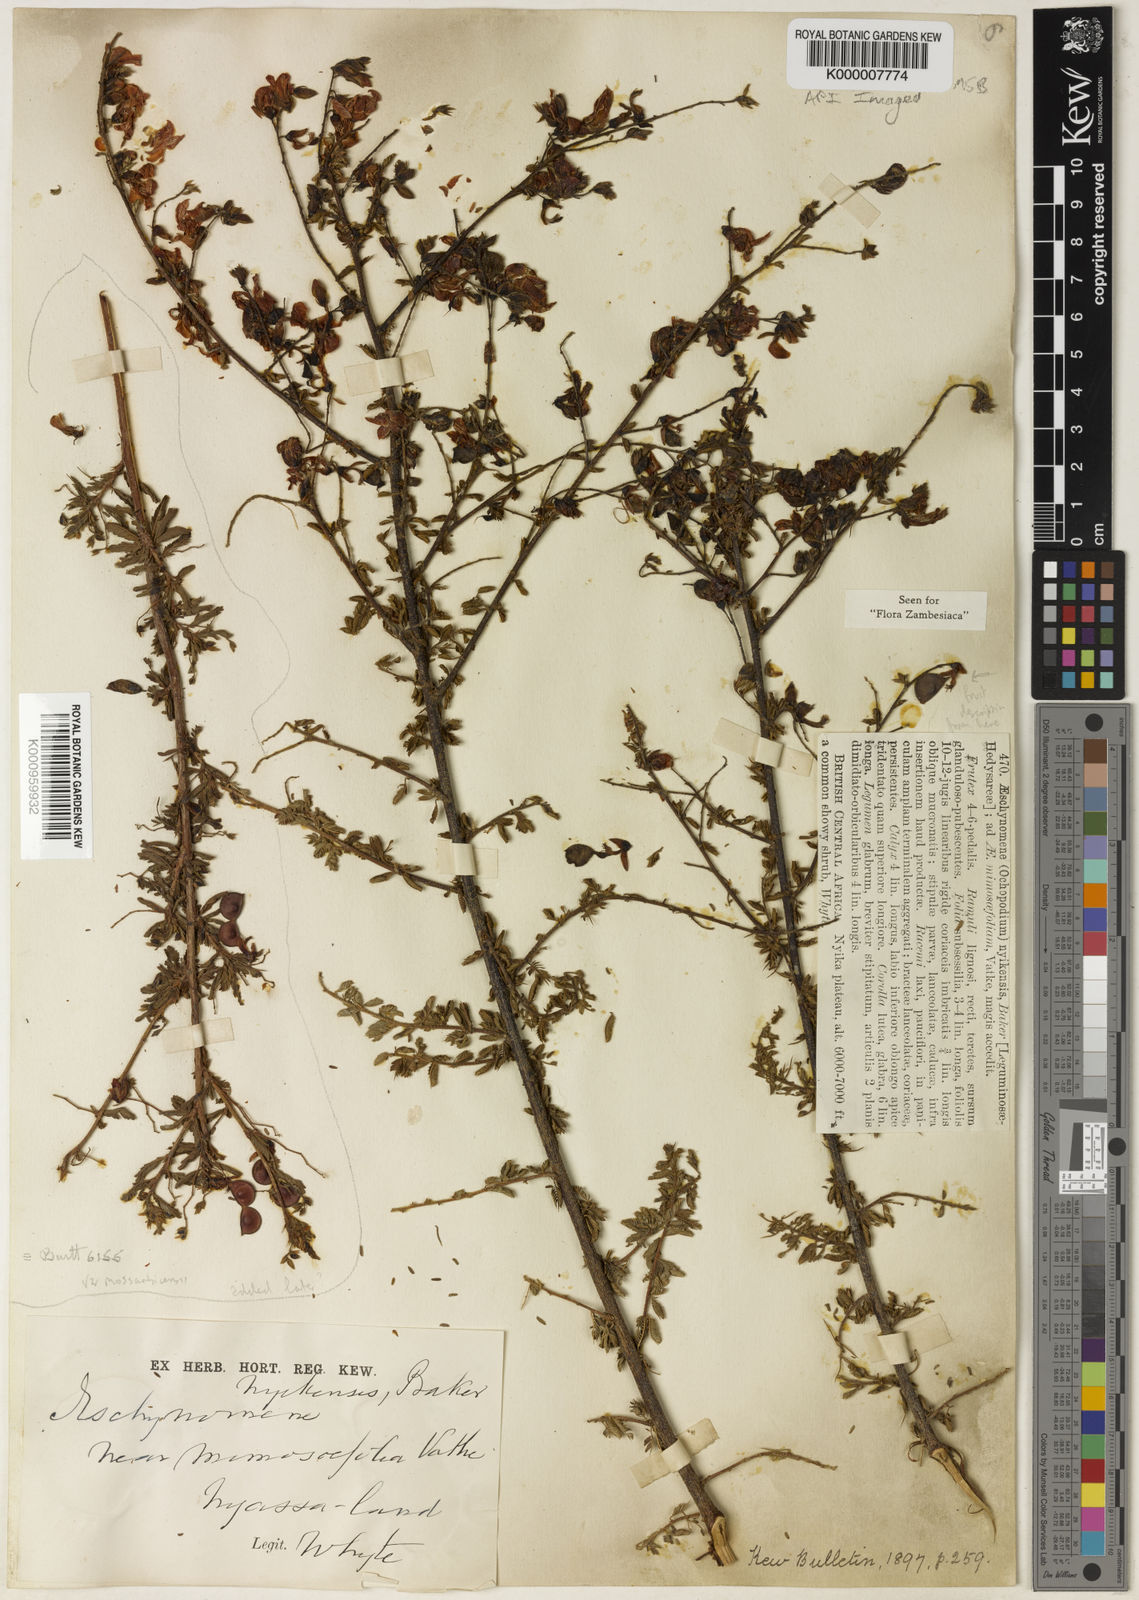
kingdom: Plantae
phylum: Tracheophyta
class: Magnoliopsida
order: Fabales
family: Fabaceae
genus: Aeschynomene
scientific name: Aeschynomene nyikensis
